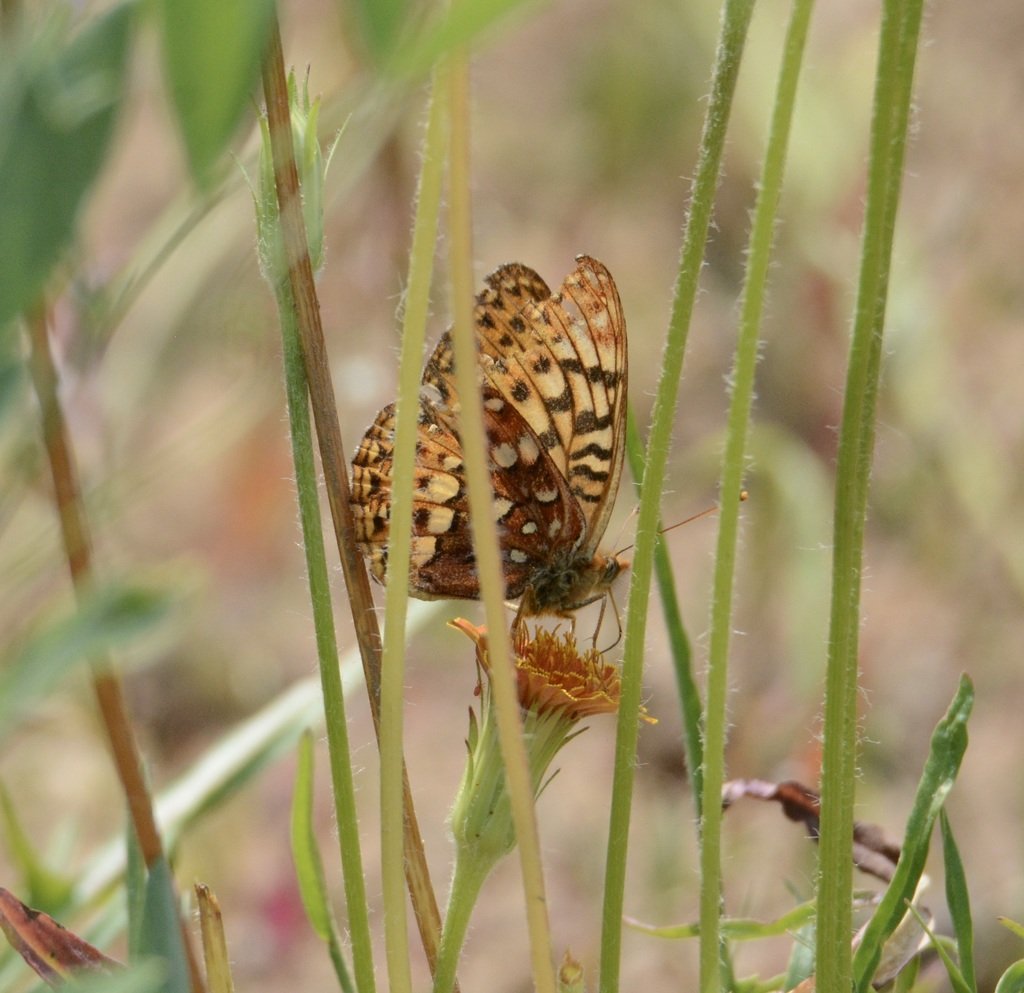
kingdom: Animalia
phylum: Arthropoda
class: Insecta
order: Lepidoptera
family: Nymphalidae
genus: Speyeria
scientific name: Speyeria zerene
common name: Zerene Fritillary
